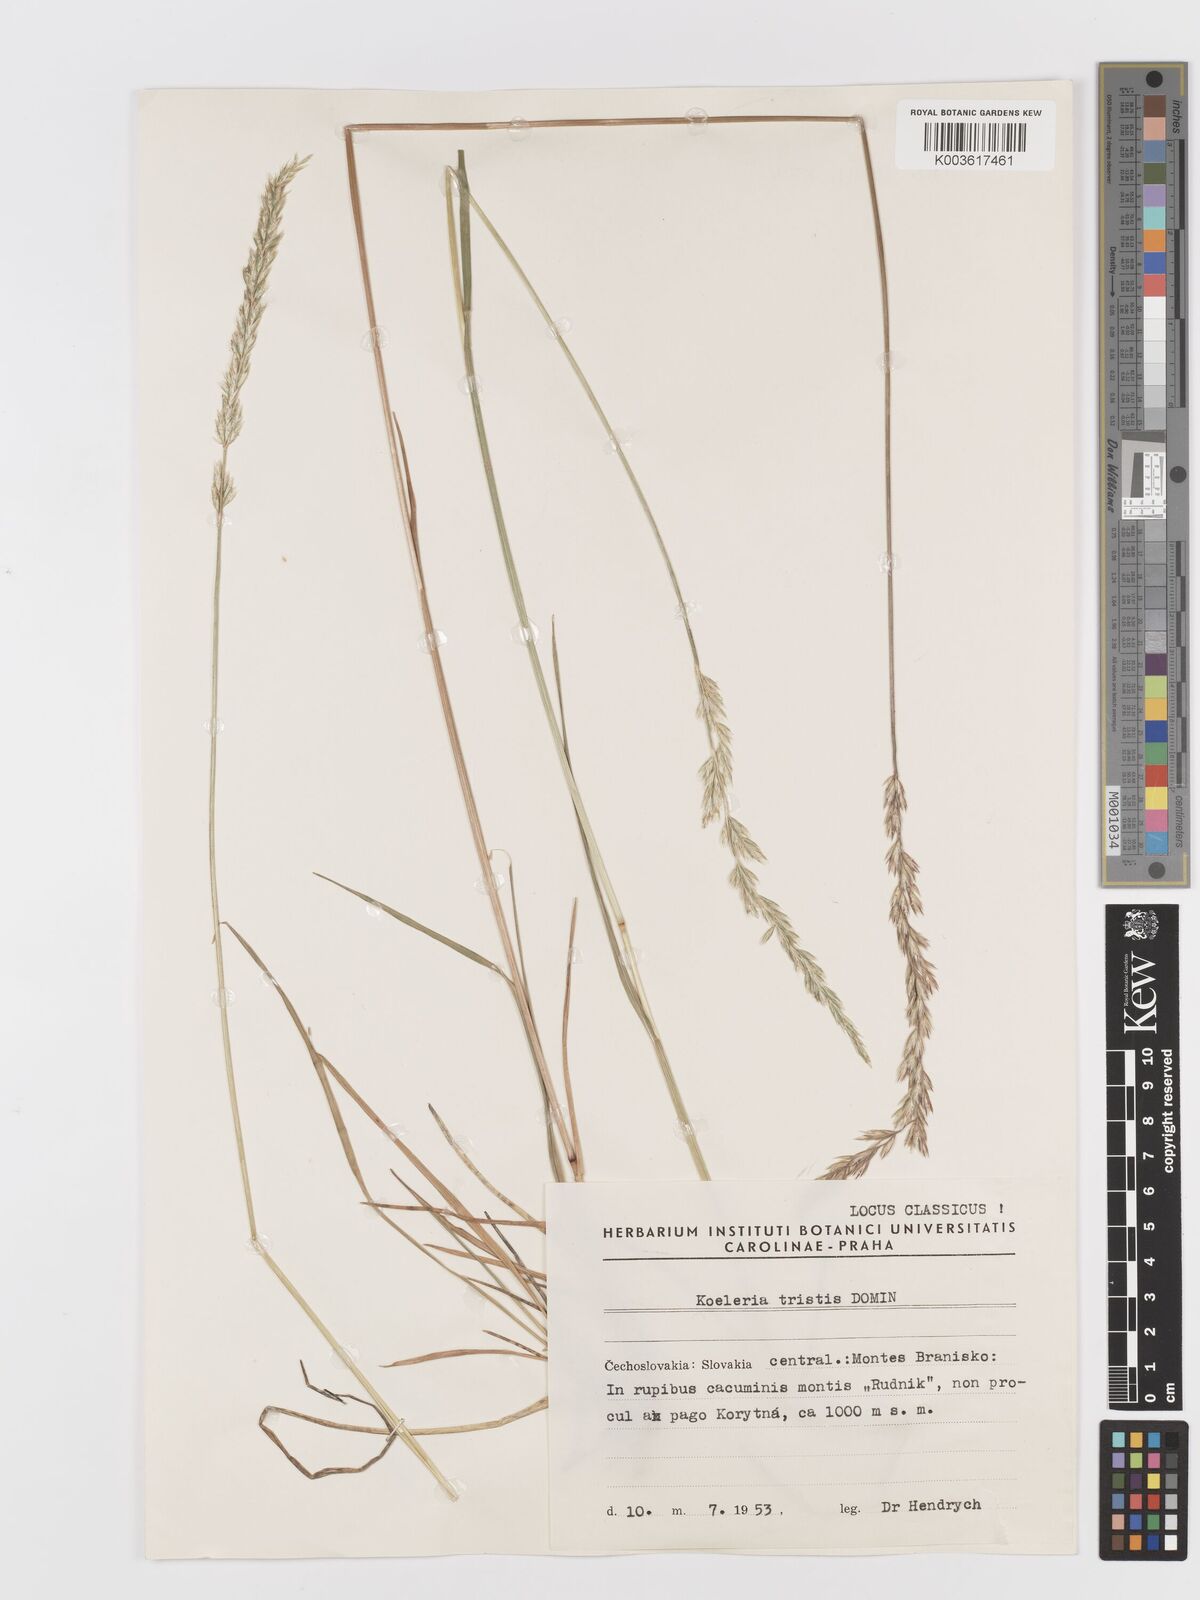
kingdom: Plantae
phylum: Tracheophyta
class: Liliopsida
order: Poales
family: Poaceae
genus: Koeleria
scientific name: Koeleria pyramidata
